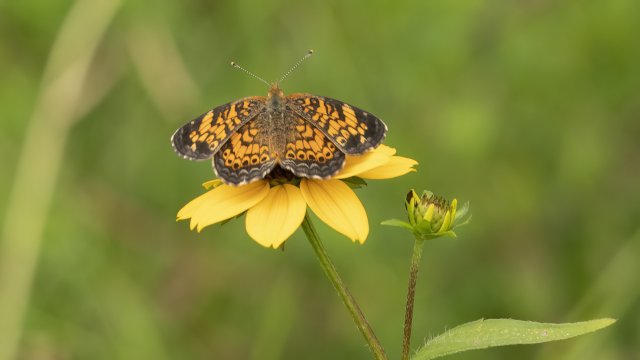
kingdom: Animalia
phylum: Arthropoda
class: Insecta
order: Lepidoptera
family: Nymphalidae
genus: Phyciodes
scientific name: Phyciodes tharos
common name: Pearl Crescent
